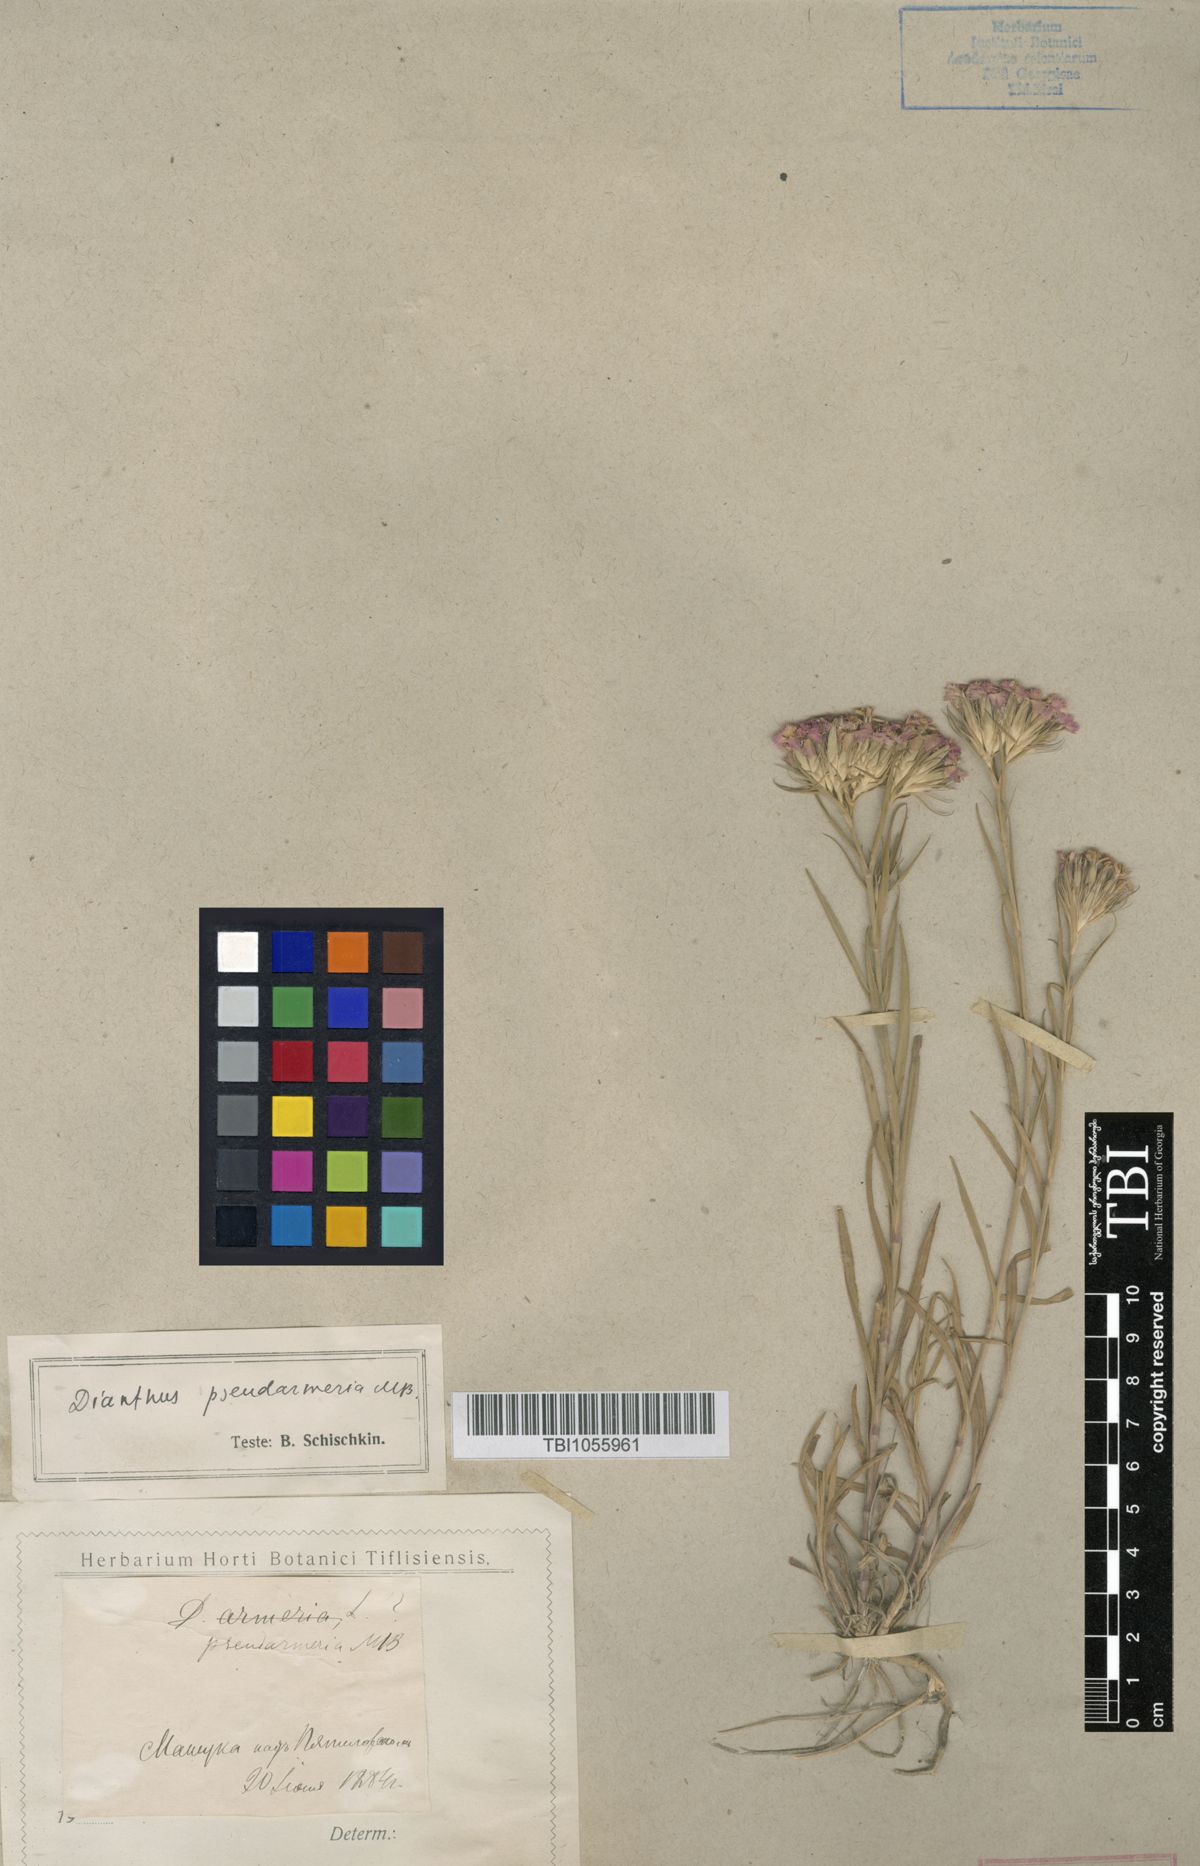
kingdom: Plantae
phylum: Tracheophyta
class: Magnoliopsida
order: Caryophyllales
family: Caryophyllaceae
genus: Dianthus
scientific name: Dianthus pseudarmeria
